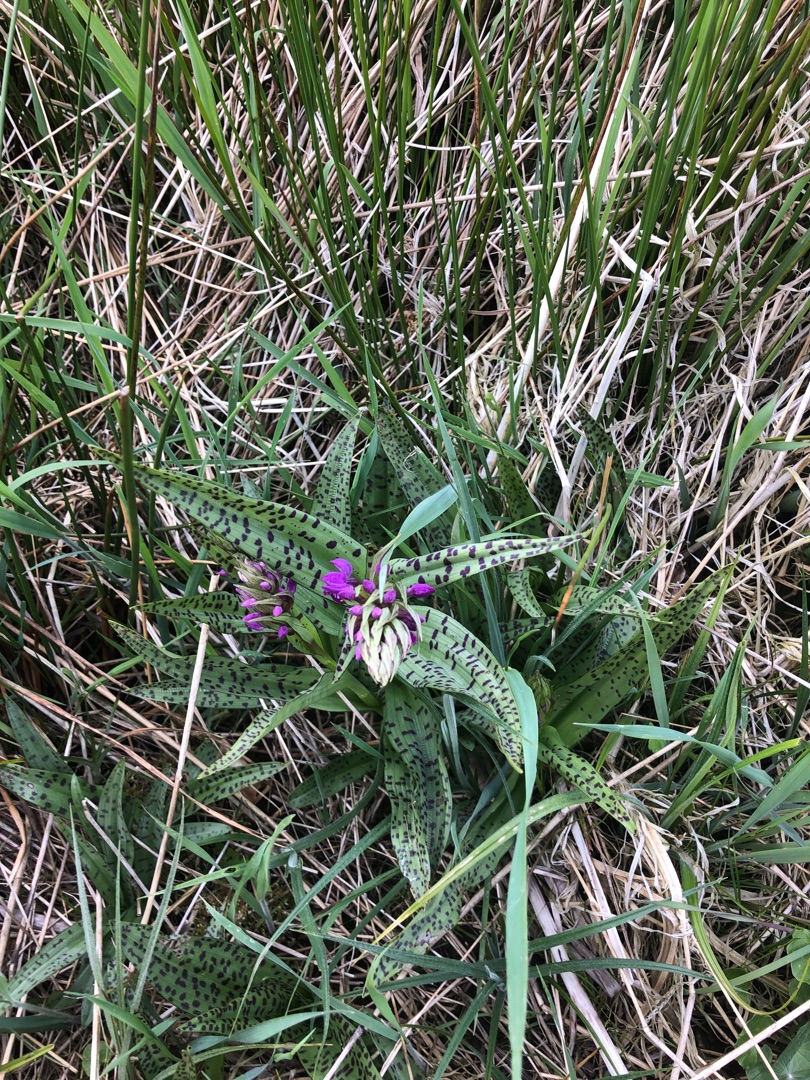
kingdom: Plantae
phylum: Tracheophyta
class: Liliopsida
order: Asparagales
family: Orchidaceae
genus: Dactylorhiza
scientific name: Dactylorhiza majalis
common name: Maj-gøgeurt
